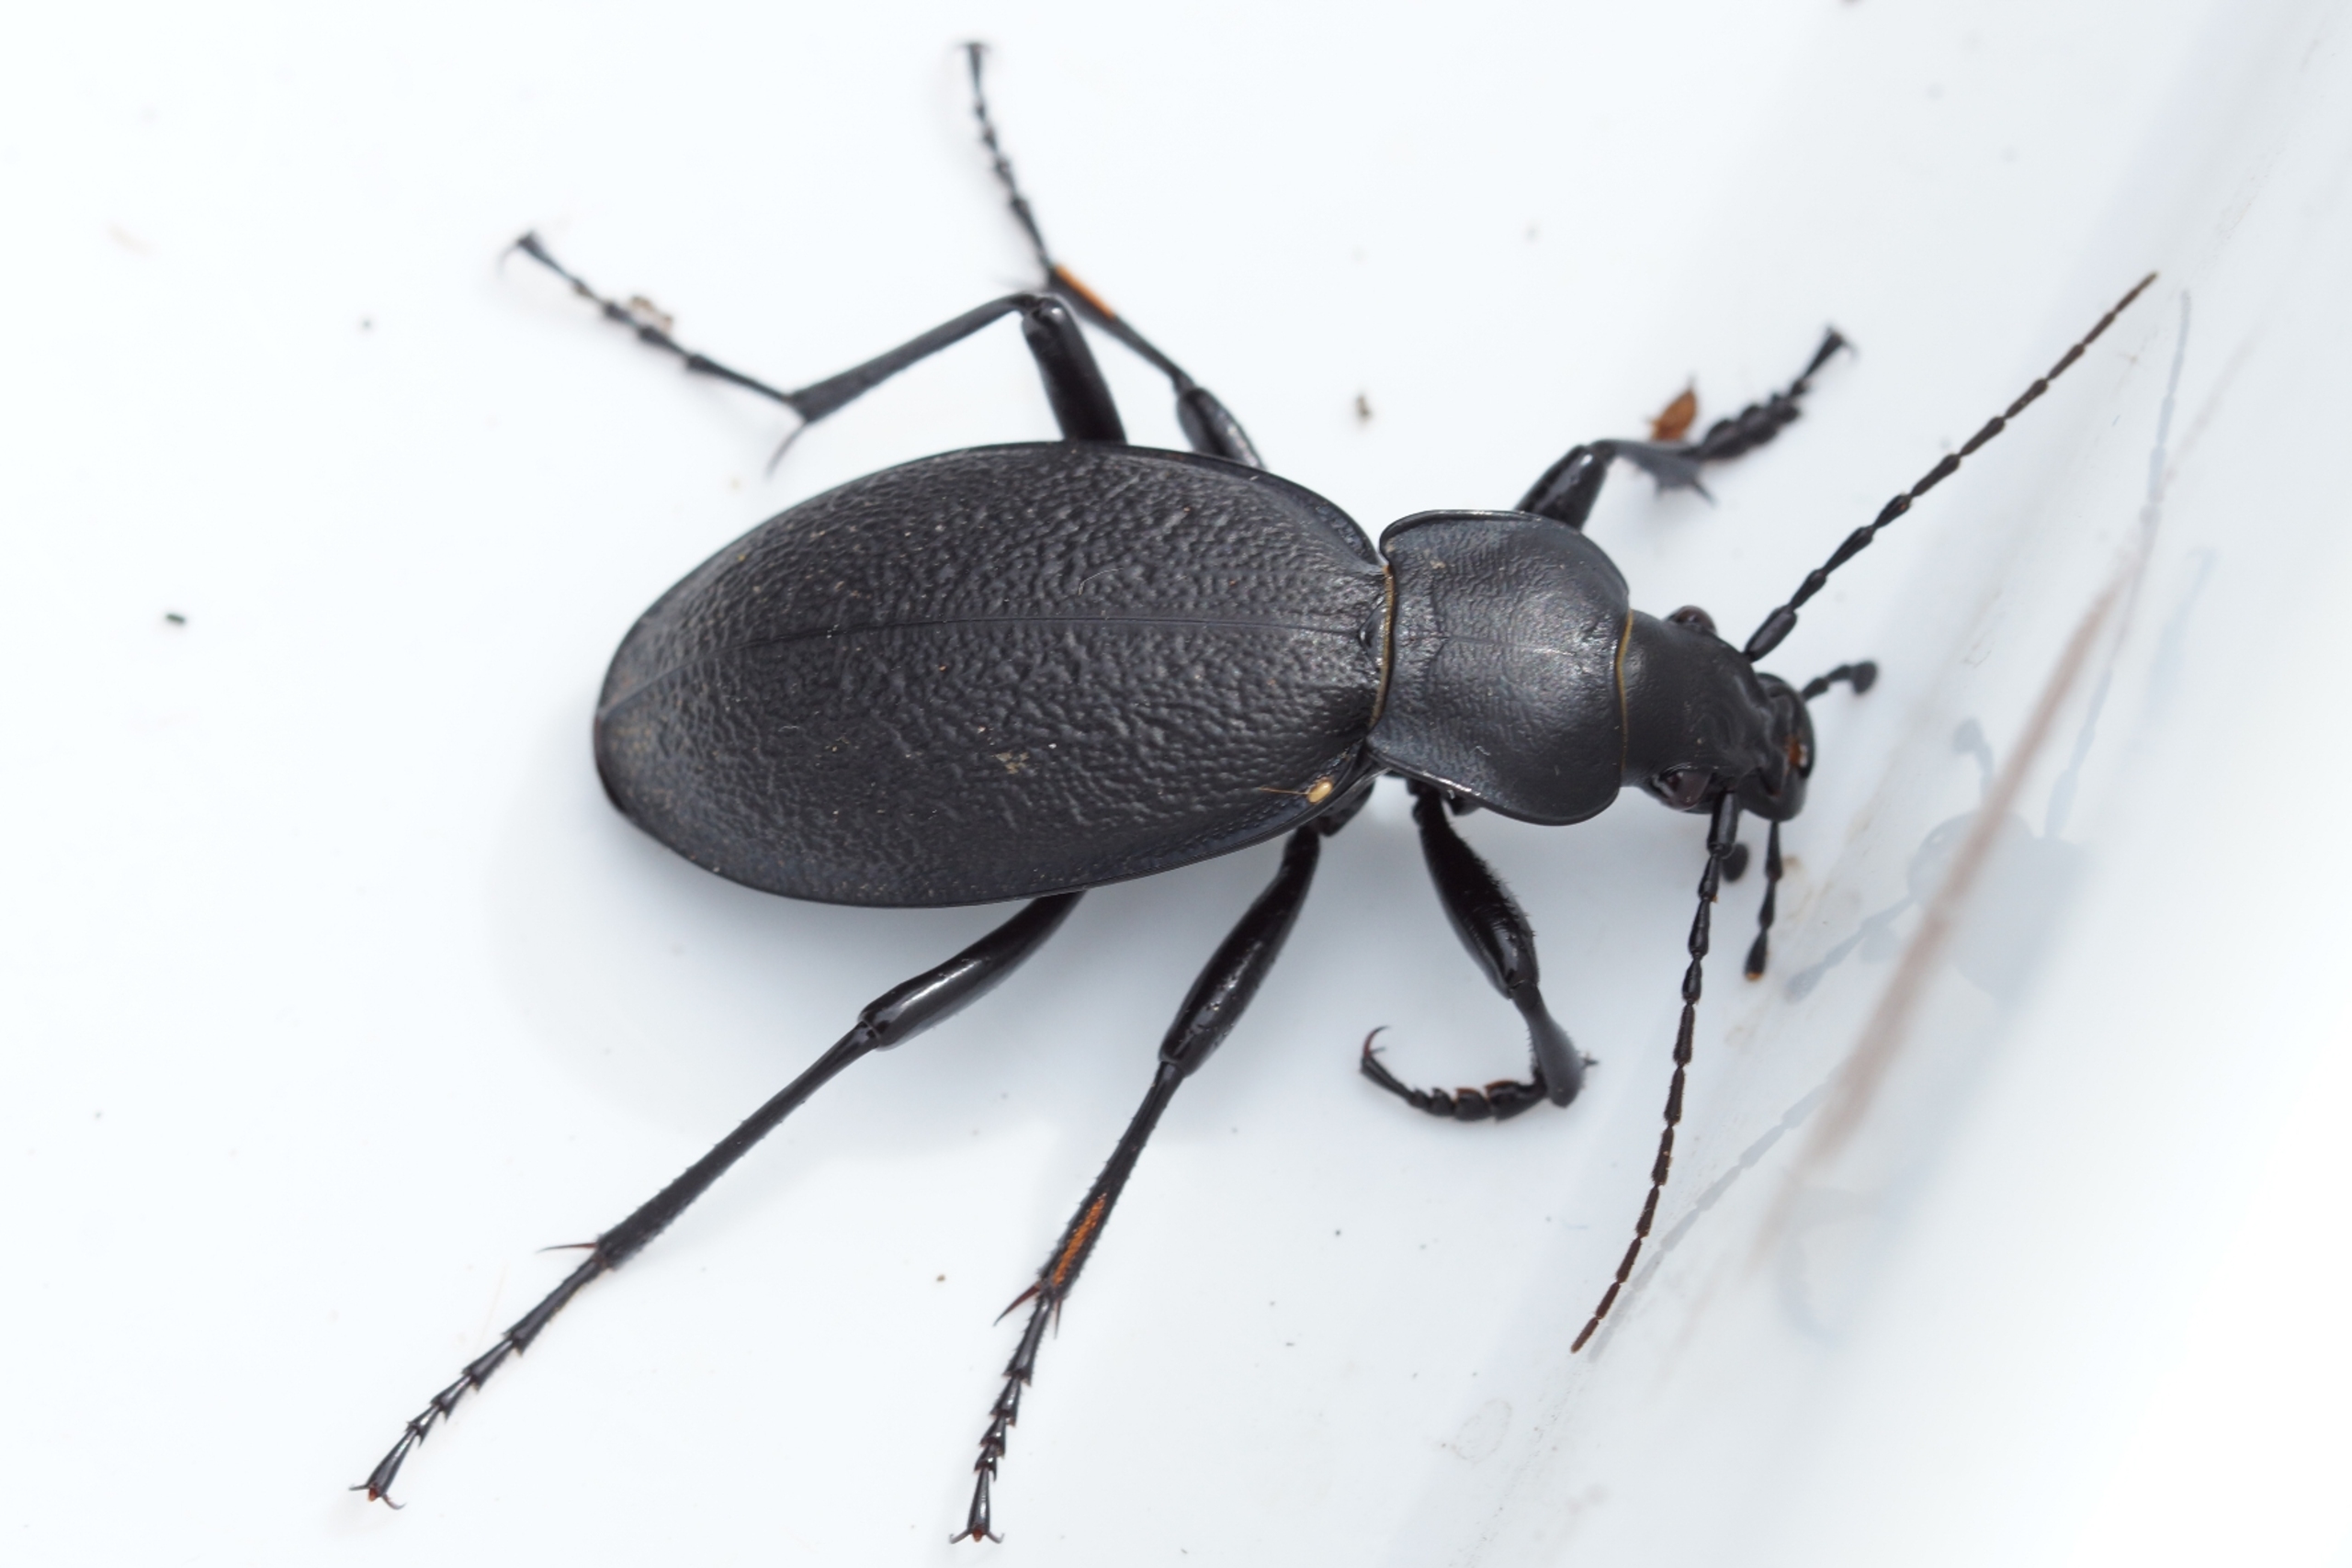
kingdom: Animalia
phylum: Arthropoda
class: Insecta
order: Coleoptera
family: Carabidae
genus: Carabus
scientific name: Carabus coriaceus
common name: Læderløber
